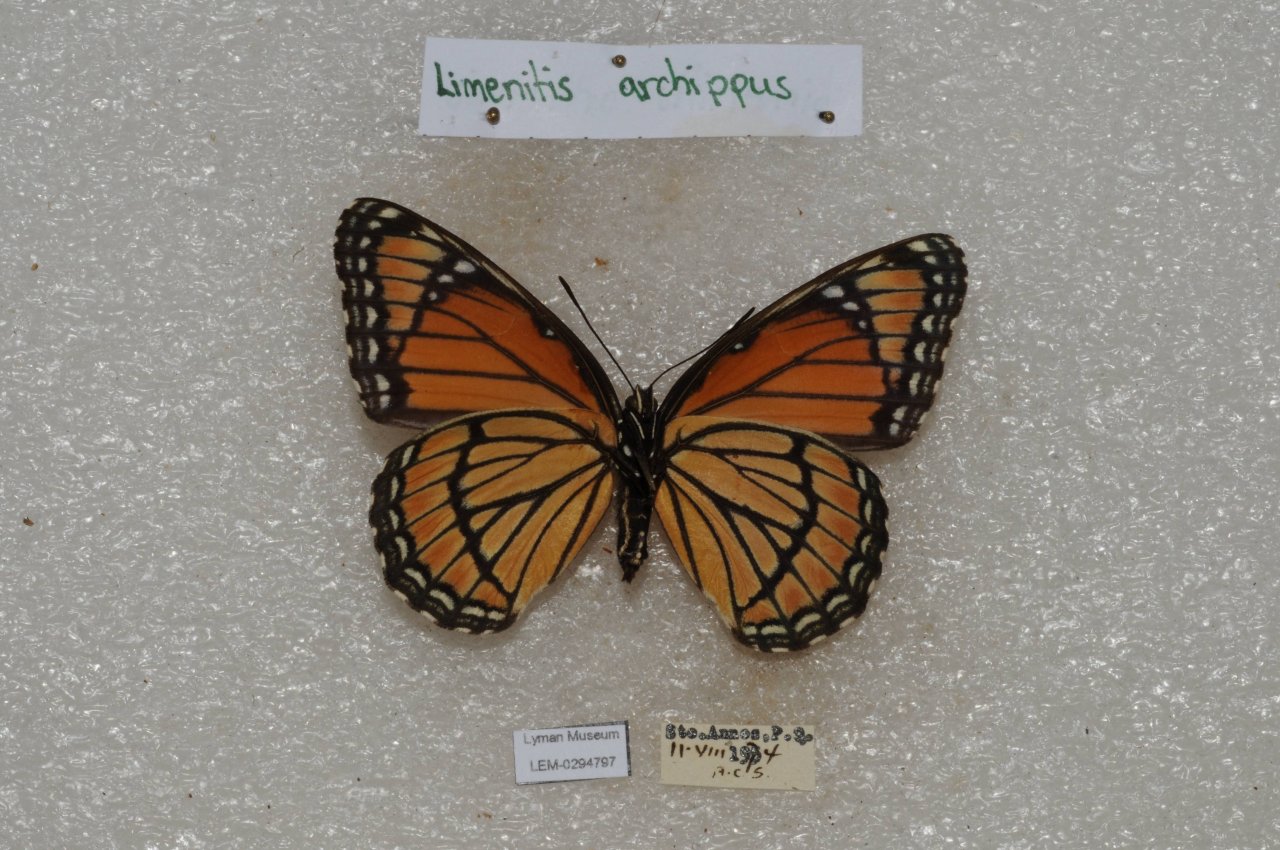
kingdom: Animalia
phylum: Arthropoda
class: Insecta
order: Lepidoptera
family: Nymphalidae
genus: Limenitis
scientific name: Limenitis archippus
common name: Viceroy
